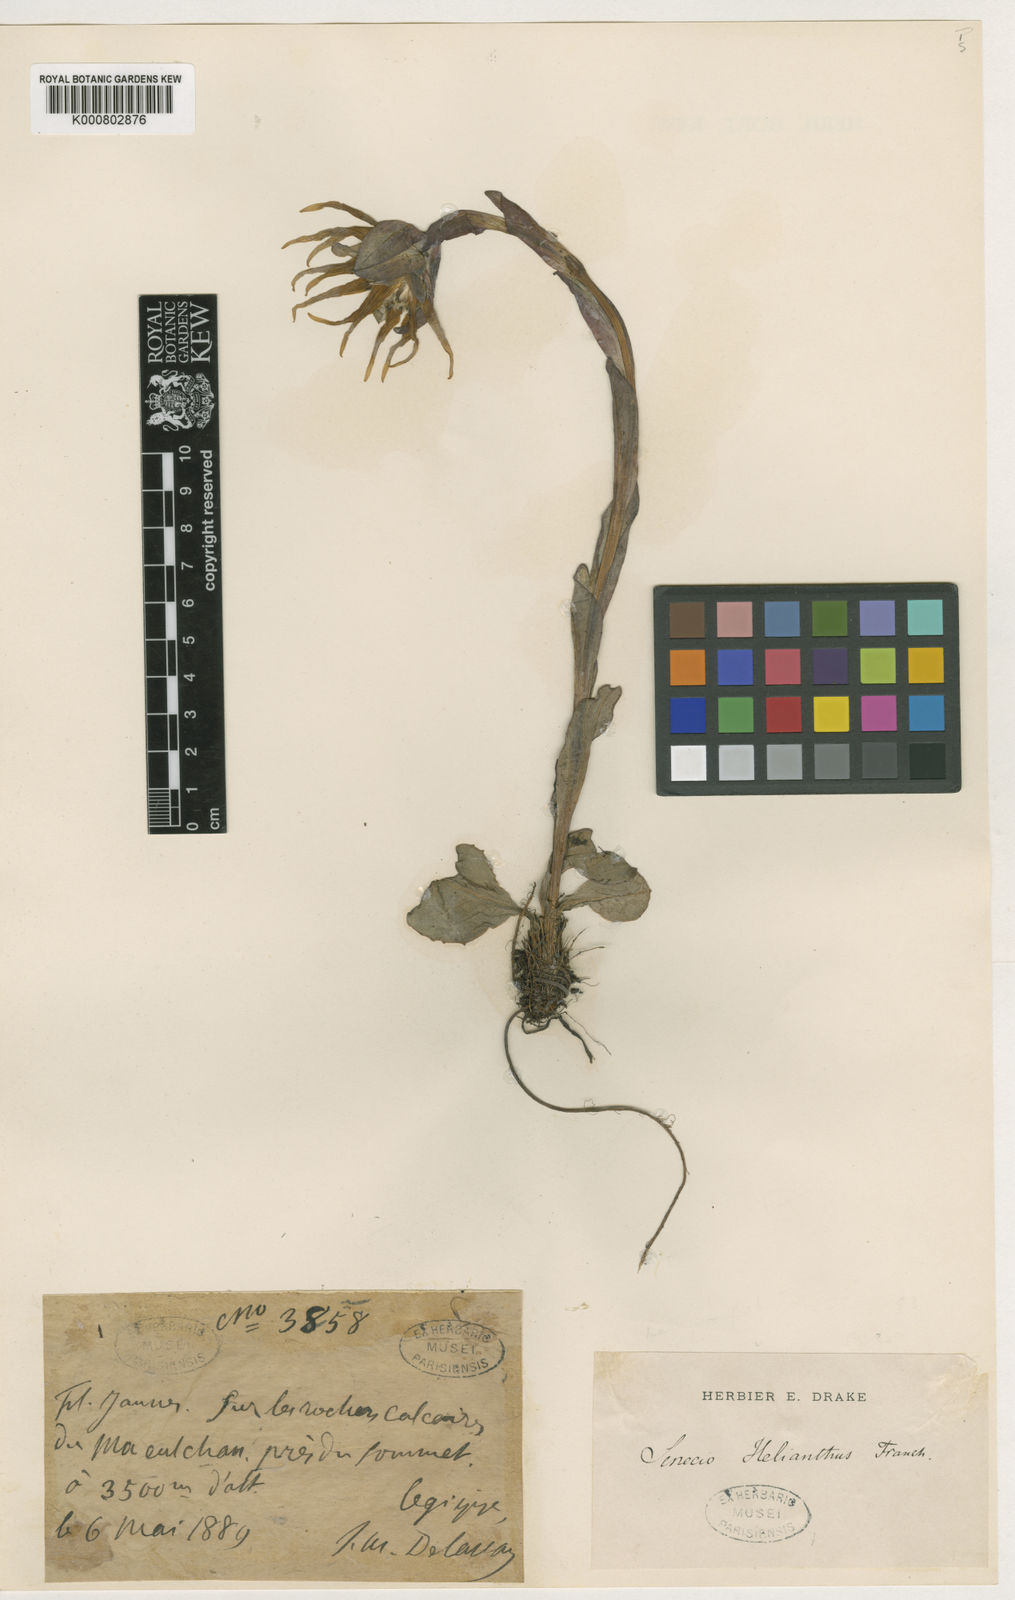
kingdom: Plantae
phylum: Tracheophyta
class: Magnoliopsida
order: Asterales
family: Asteraceae
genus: Cremanthodium
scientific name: Cremanthodium helianthus
